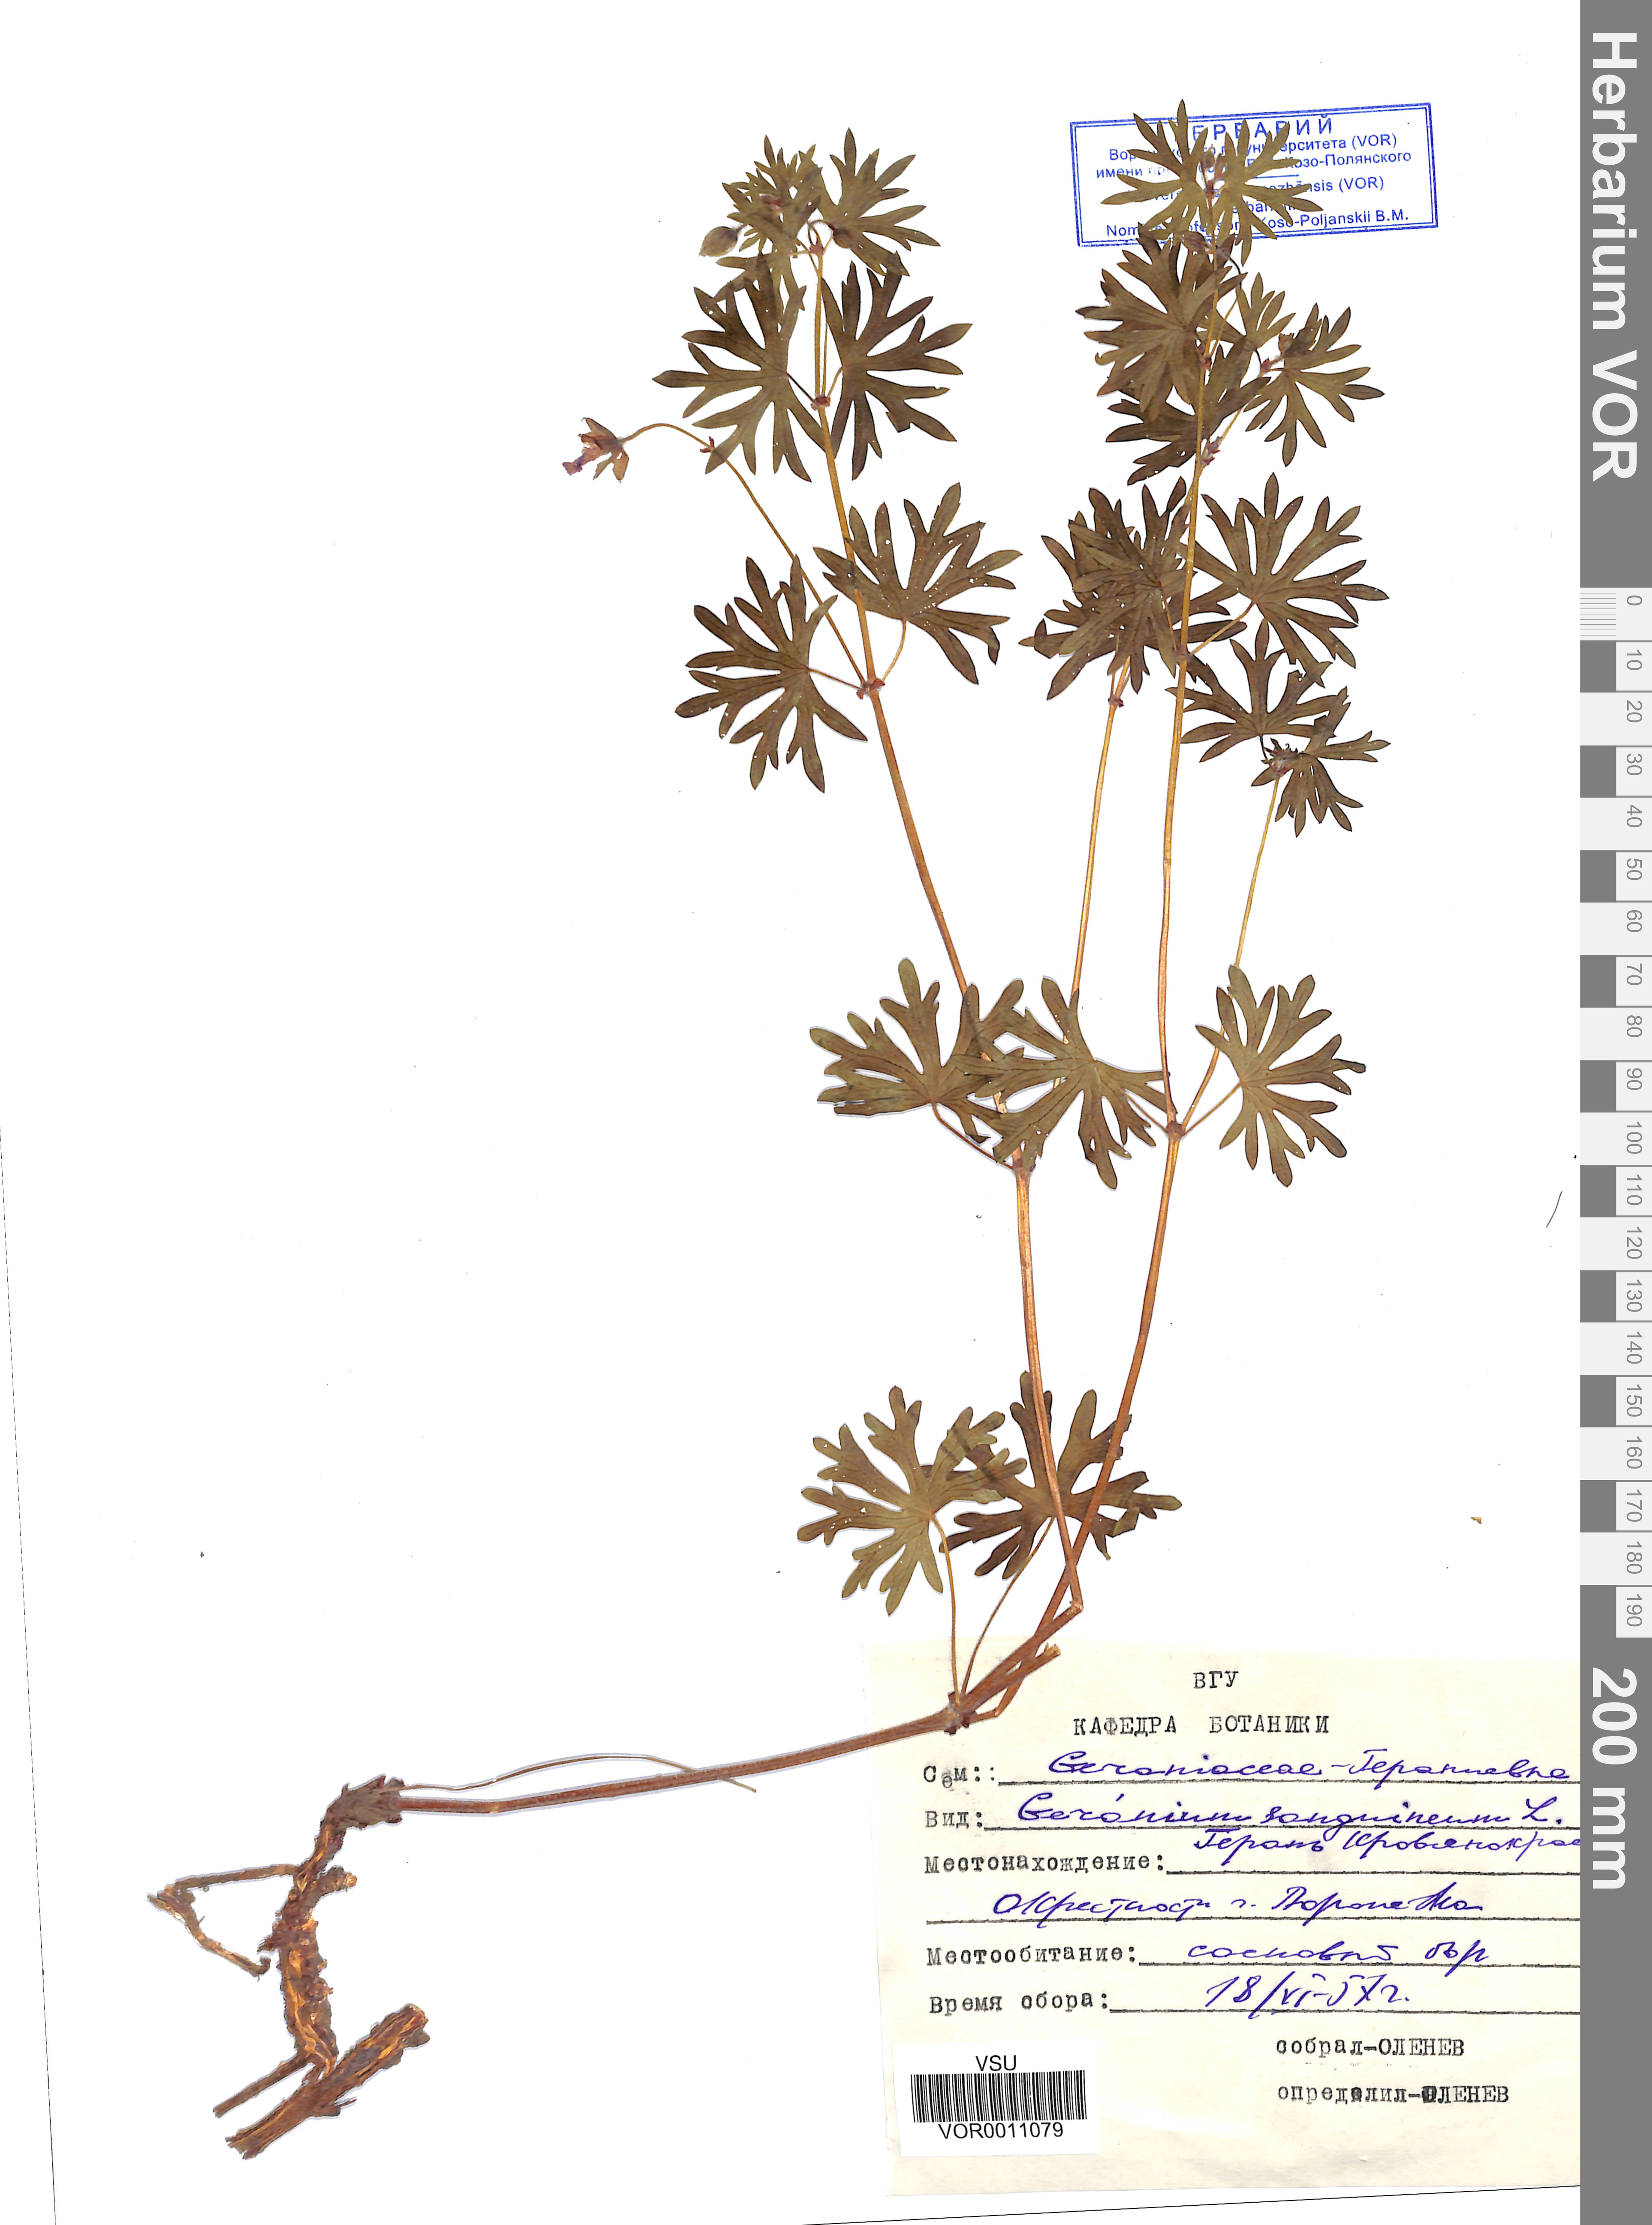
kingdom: Plantae
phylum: Tracheophyta
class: Magnoliopsida
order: Geraniales
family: Geraniaceae
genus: Geranium
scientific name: Geranium sanguineum
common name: Bloody crane's-bill
